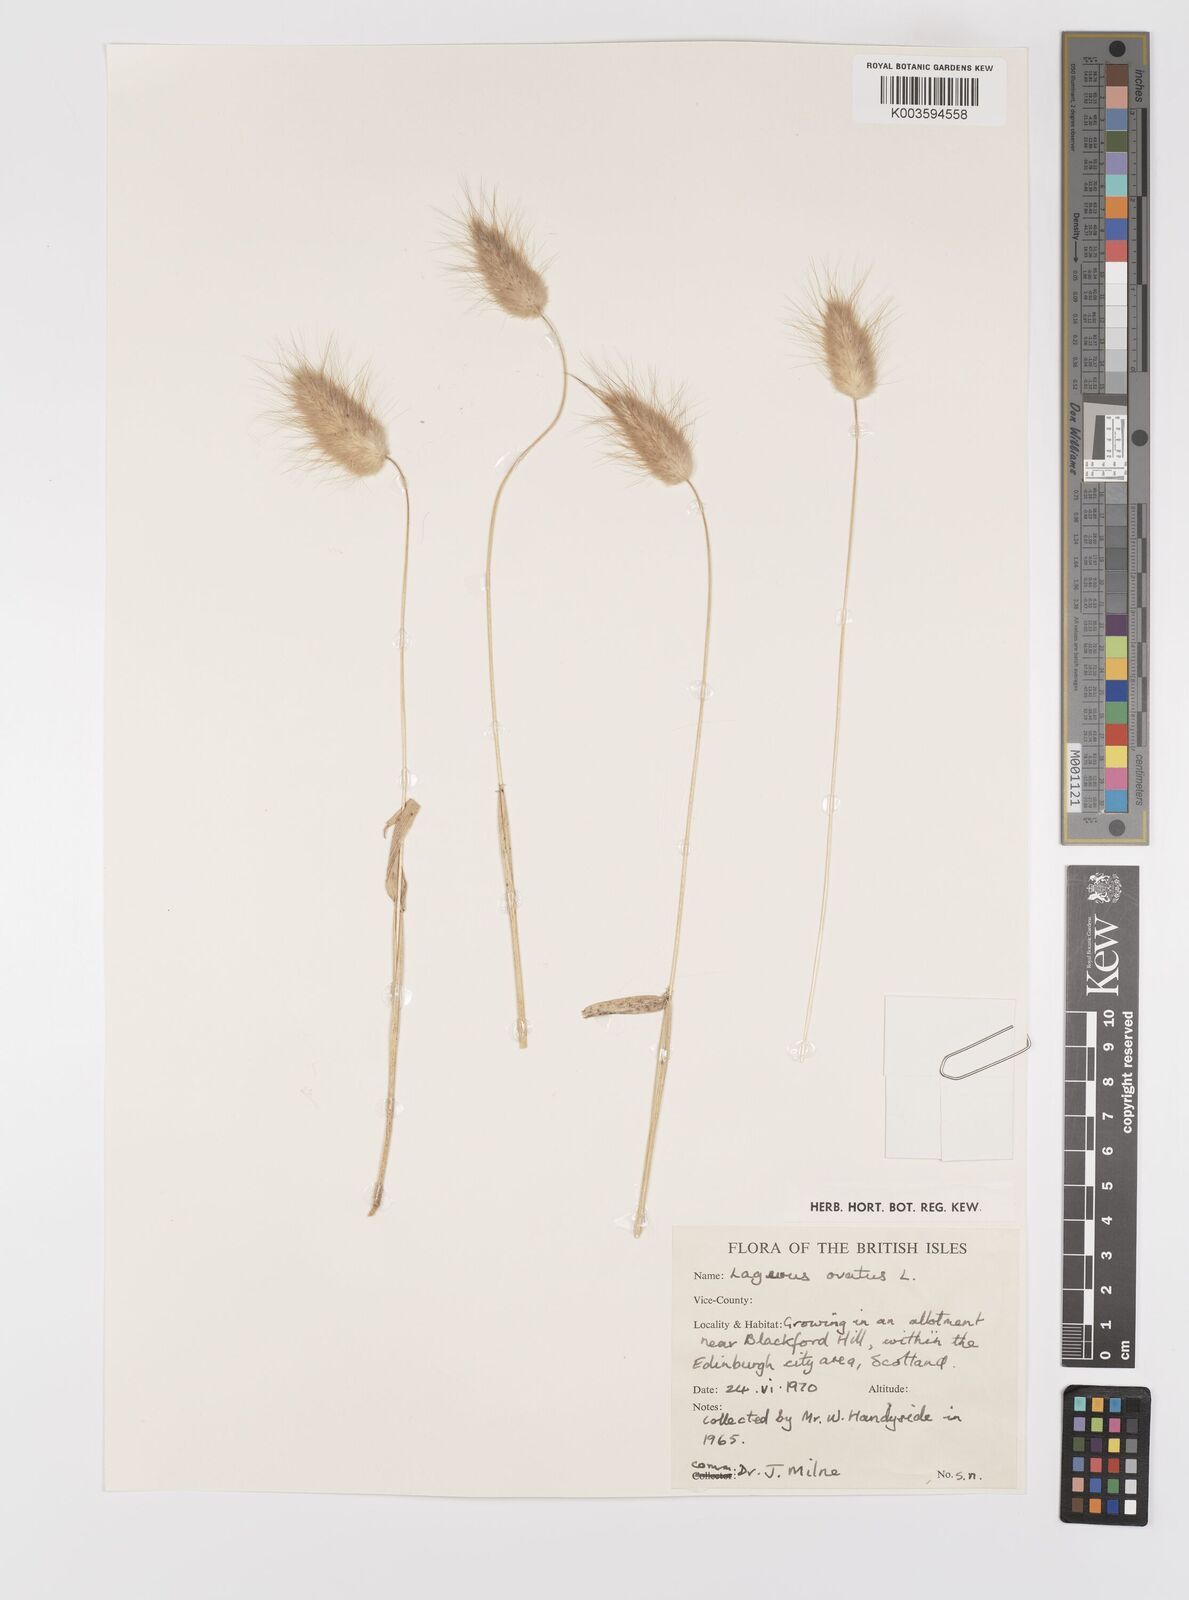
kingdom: Plantae
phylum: Tracheophyta
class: Liliopsida
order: Poales
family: Poaceae
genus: Lagurus
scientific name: Lagurus ovatus
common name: Hare's-tail
